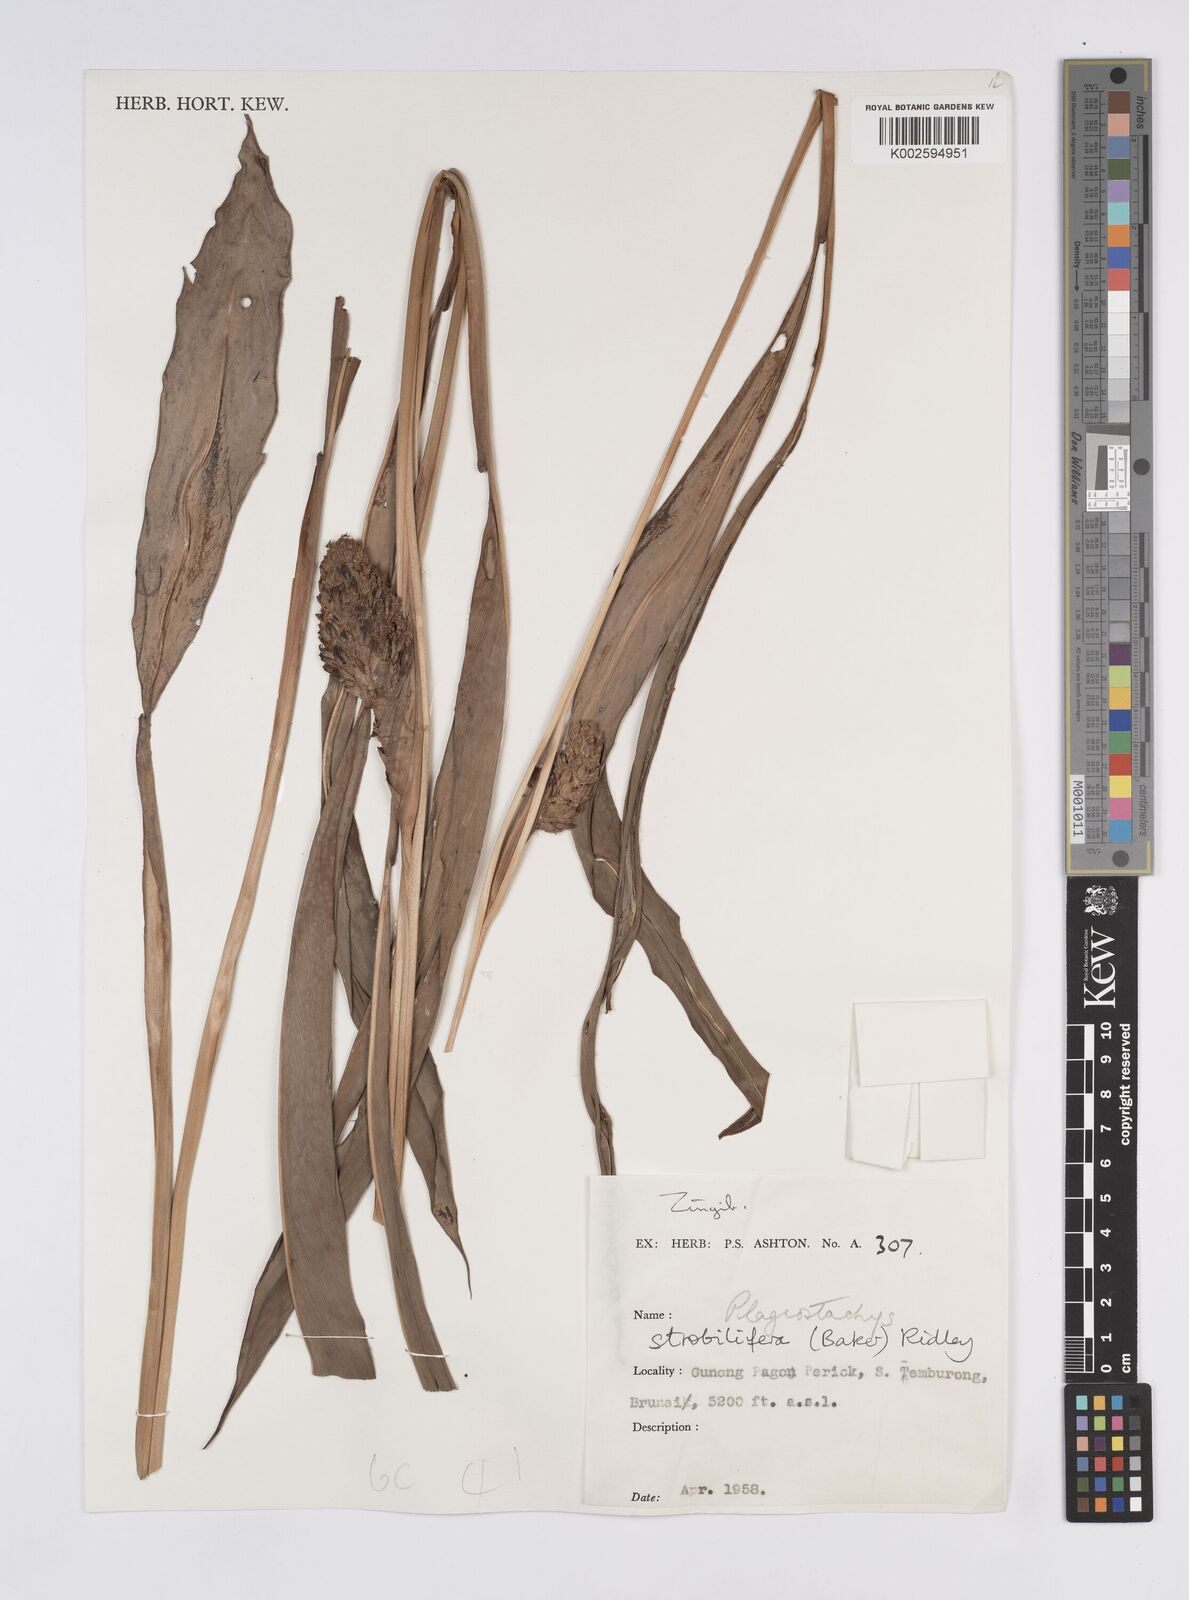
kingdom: Plantae
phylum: Tracheophyta
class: Liliopsida
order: Zingiberales
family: Zingiberaceae
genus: Plagiostachys
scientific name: Plagiostachys strobilifera
